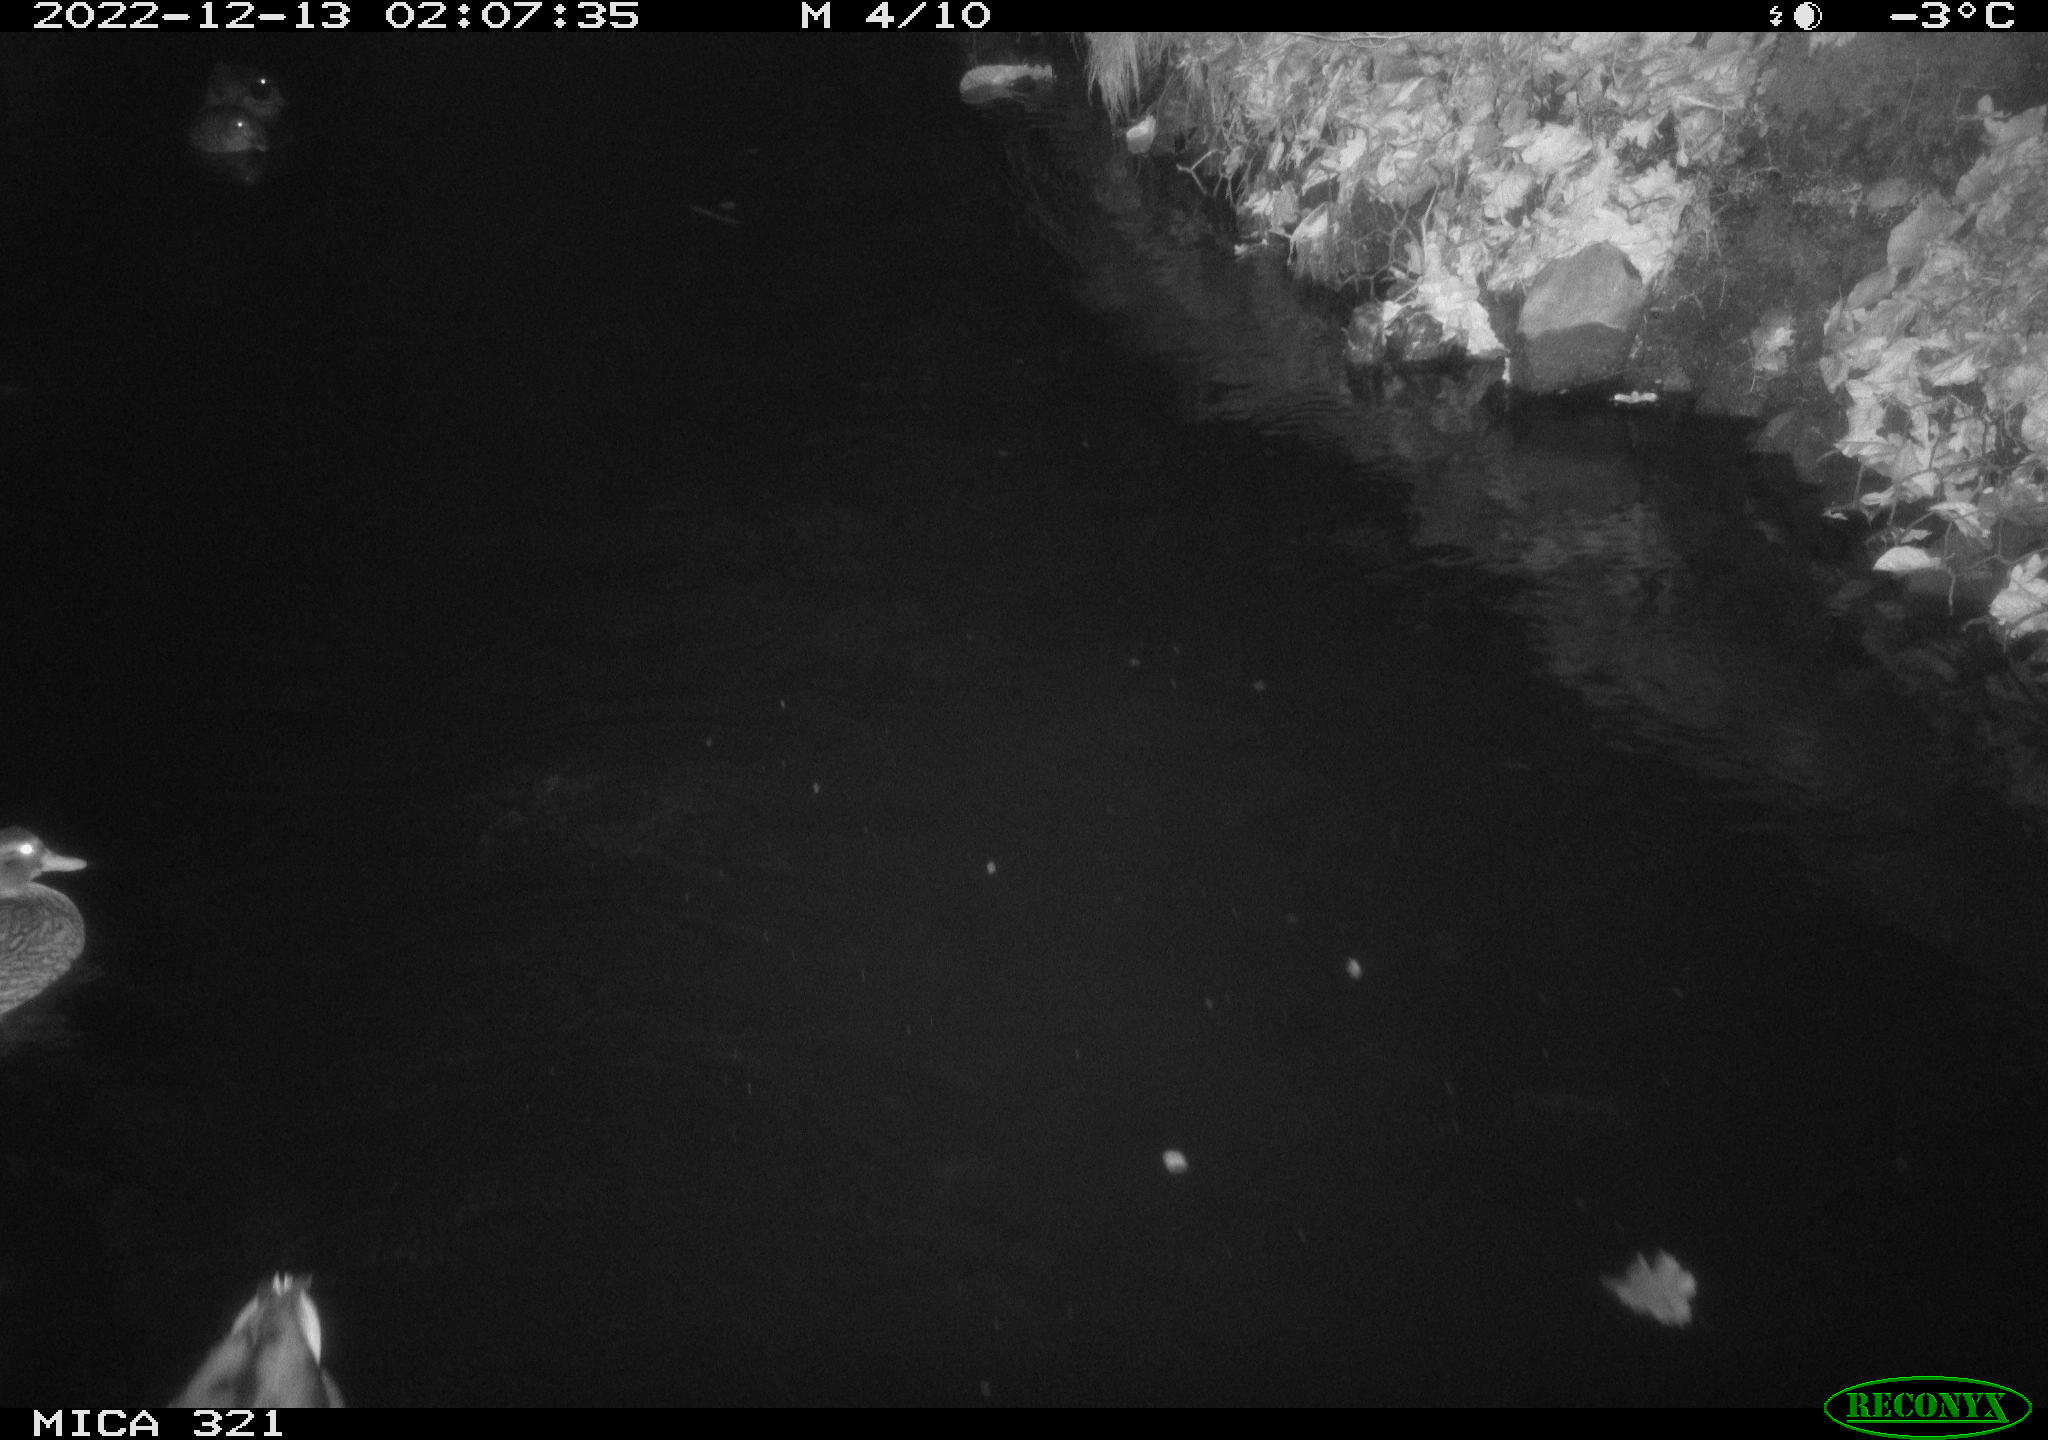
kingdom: Animalia
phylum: Chordata
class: Aves
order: Anseriformes
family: Anatidae
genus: Anas
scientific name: Anas
